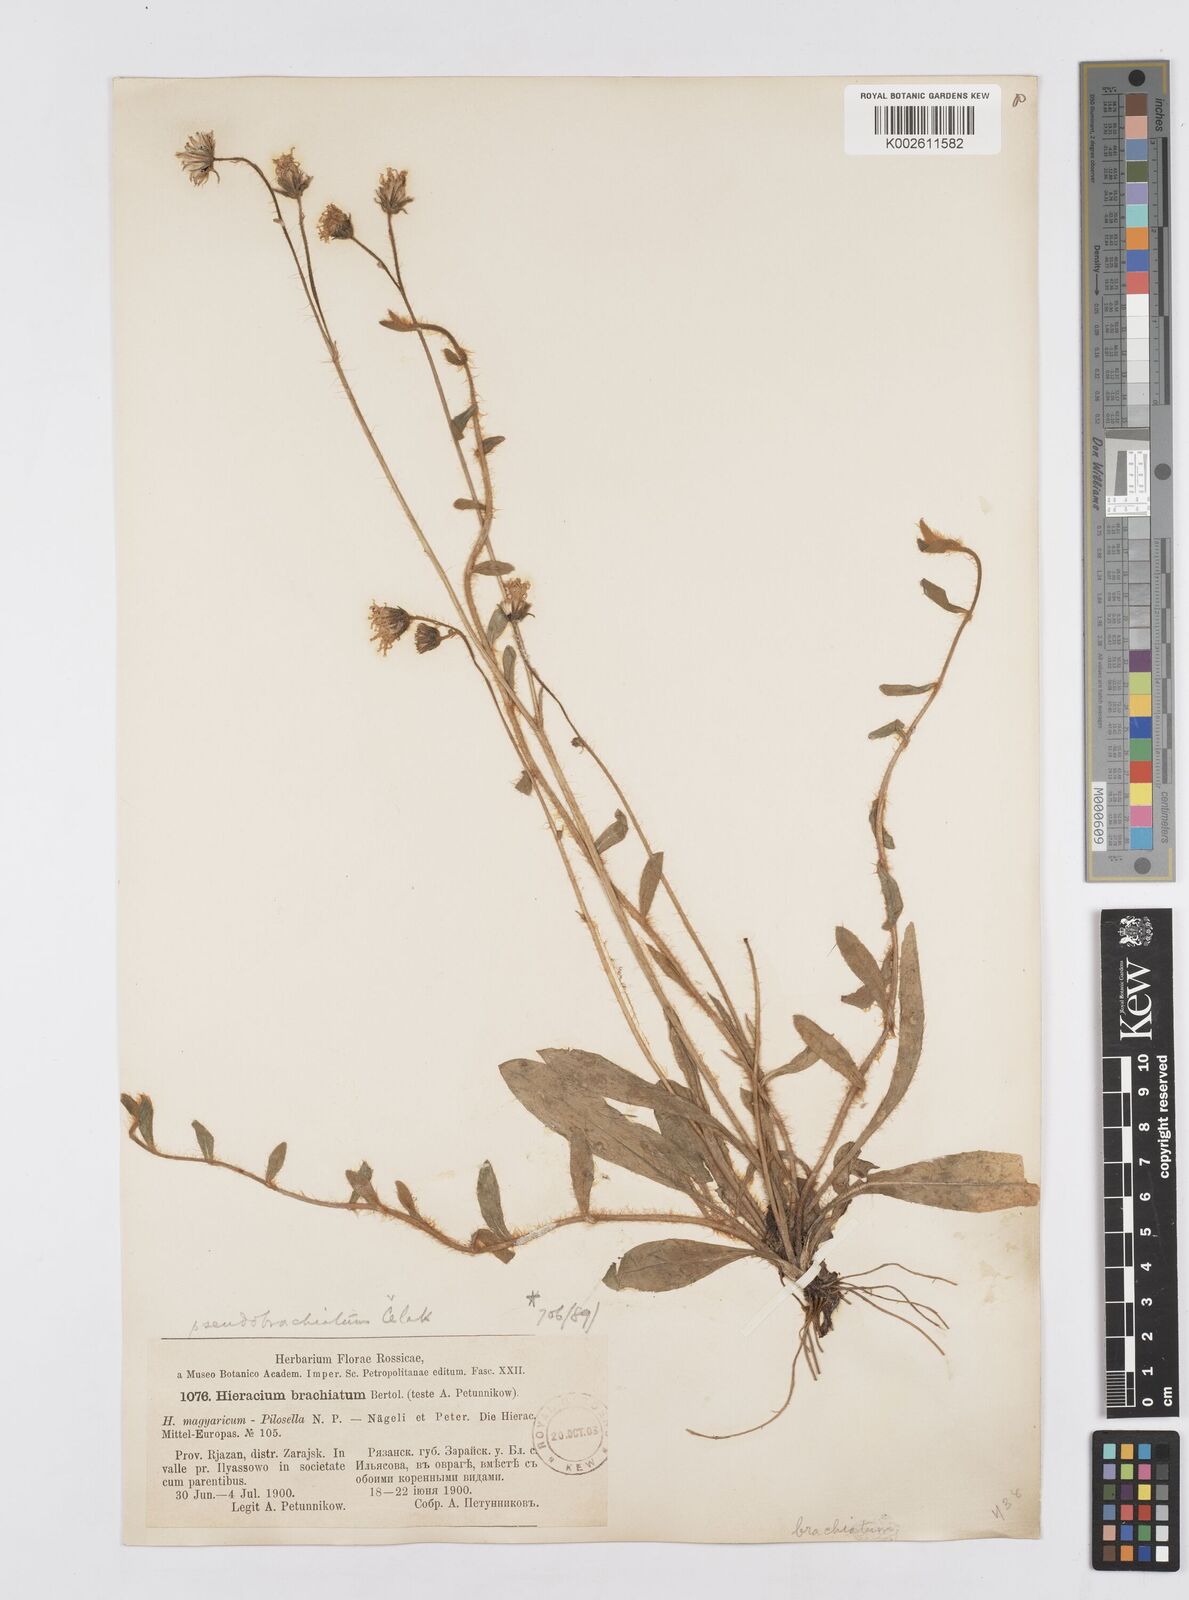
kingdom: Plantae
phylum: Tracheophyta
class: Magnoliopsida
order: Asterales
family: Asteraceae
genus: Pilosella
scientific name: Pilosella acutifolia
